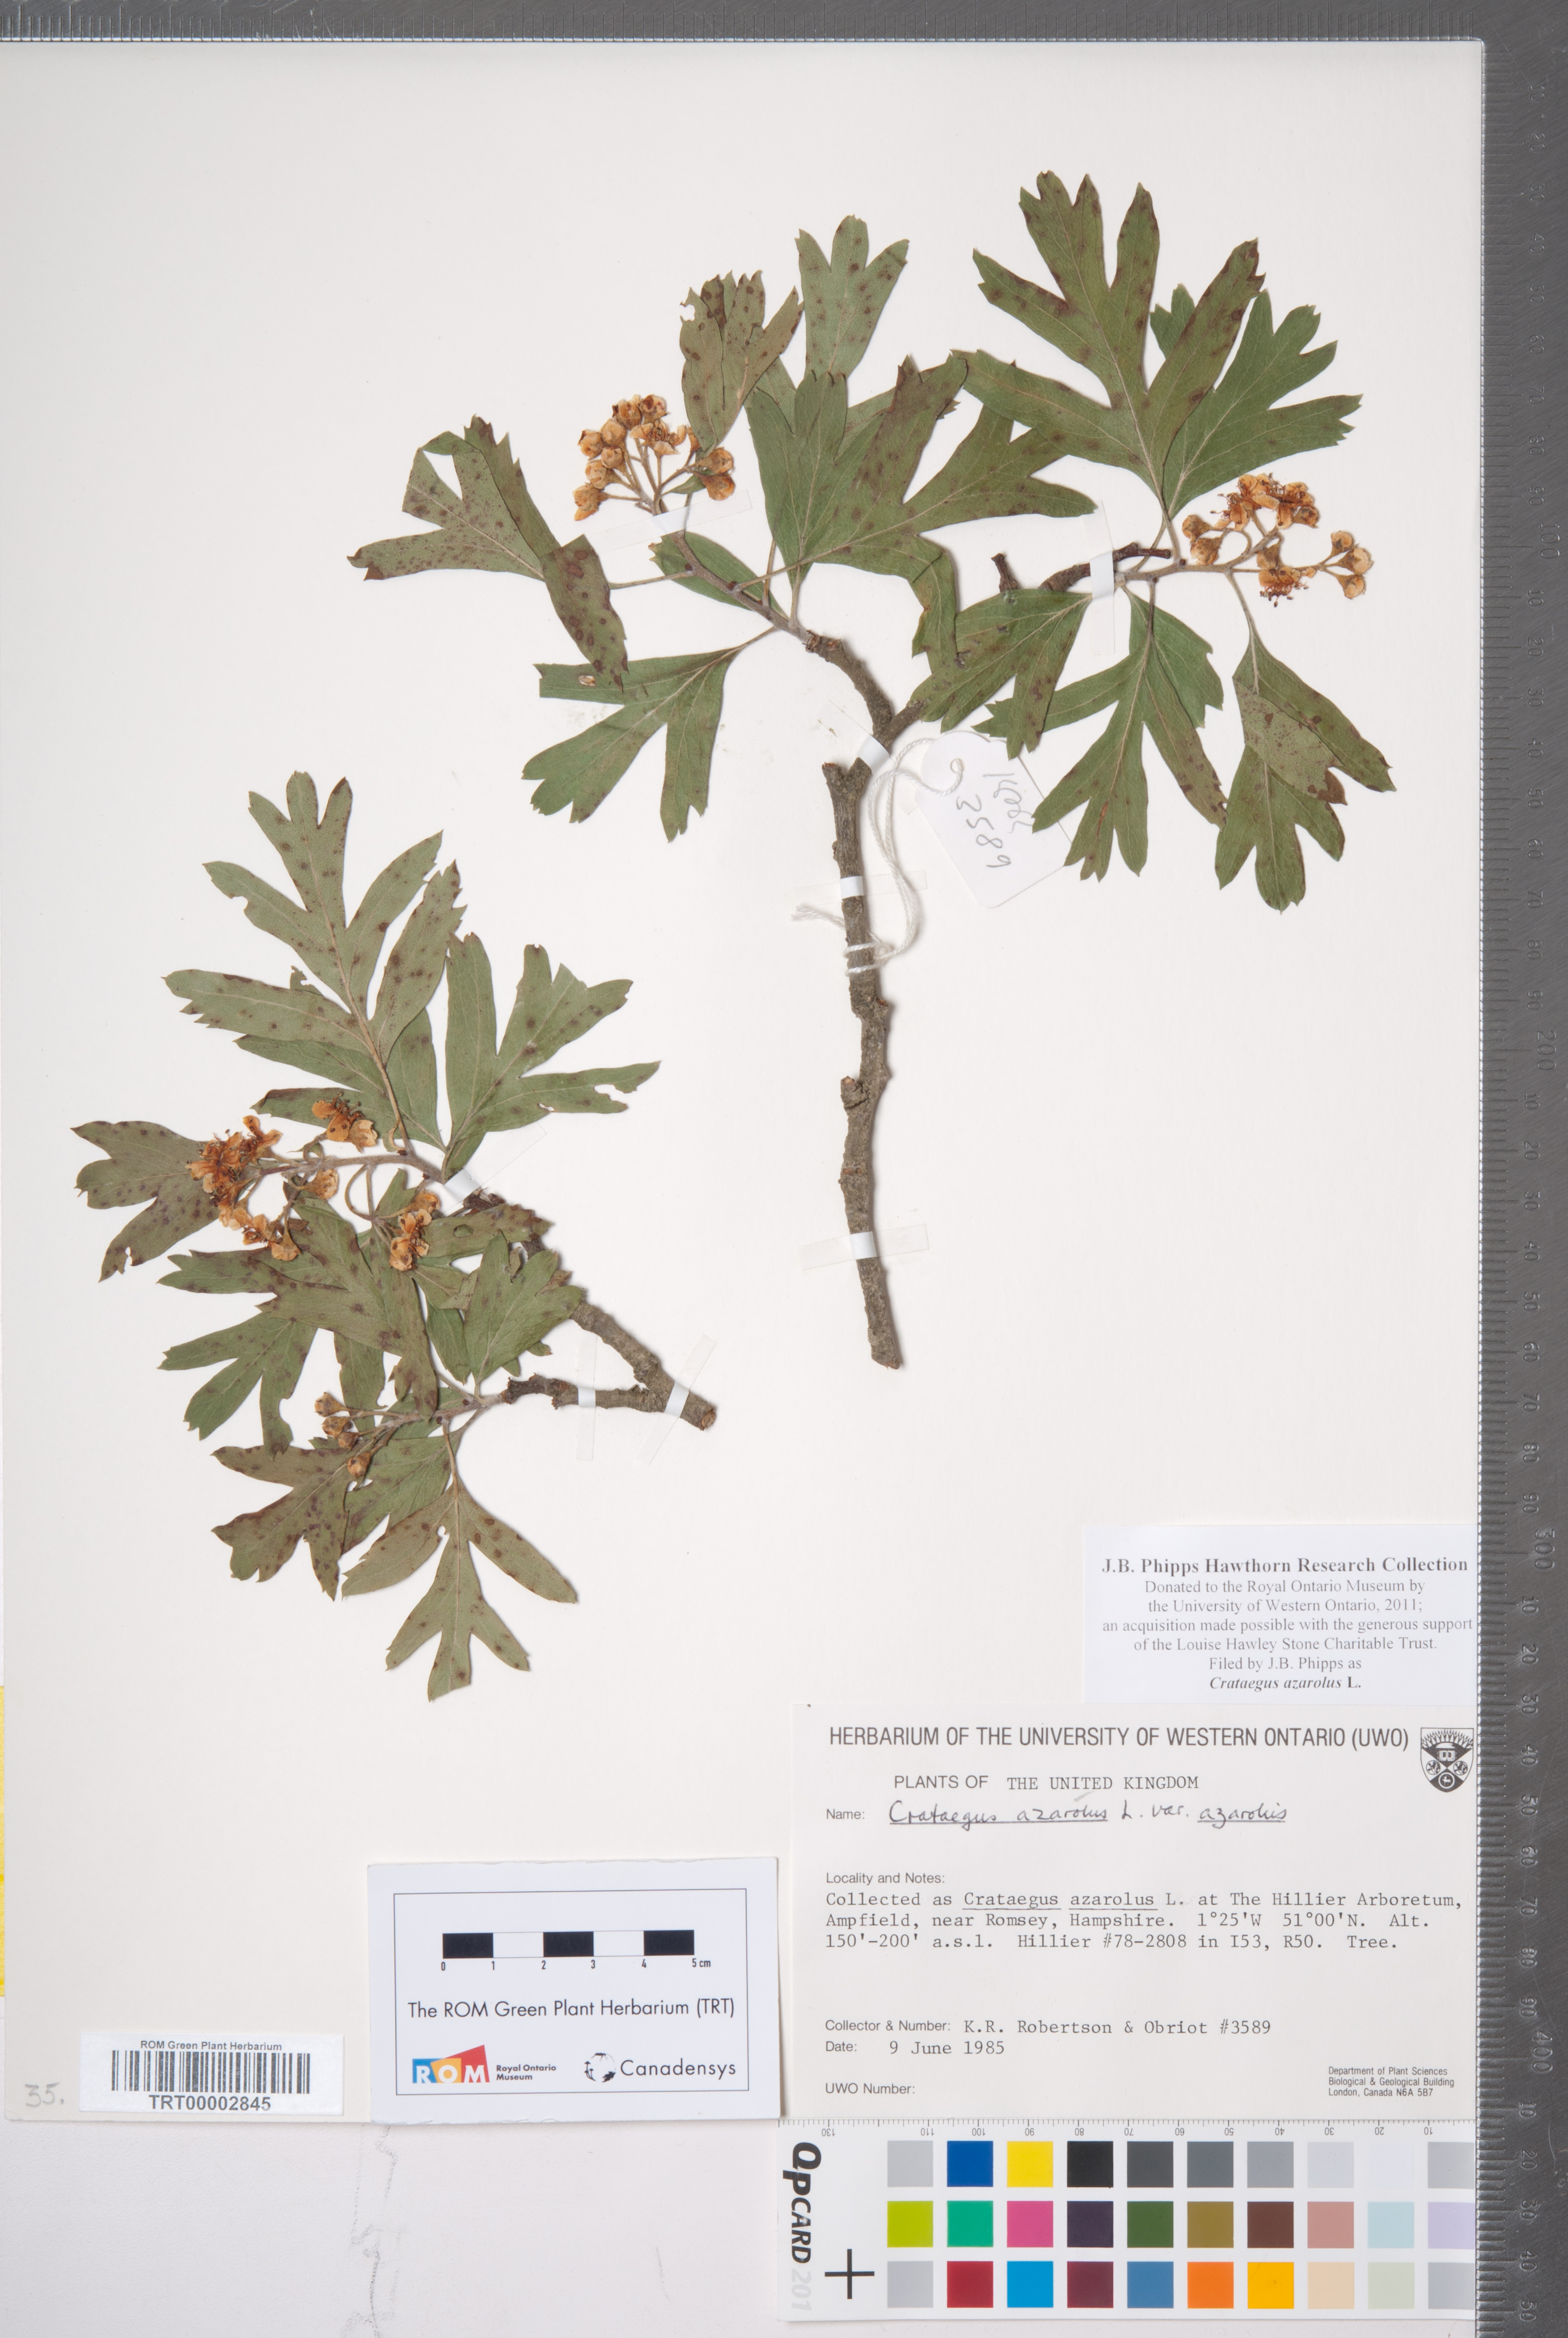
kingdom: Plantae
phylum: Tracheophyta
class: Magnoliopsida
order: Rosales
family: Rosaceae
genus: Crataegus
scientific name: Crataegus azarolus
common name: Azarole
